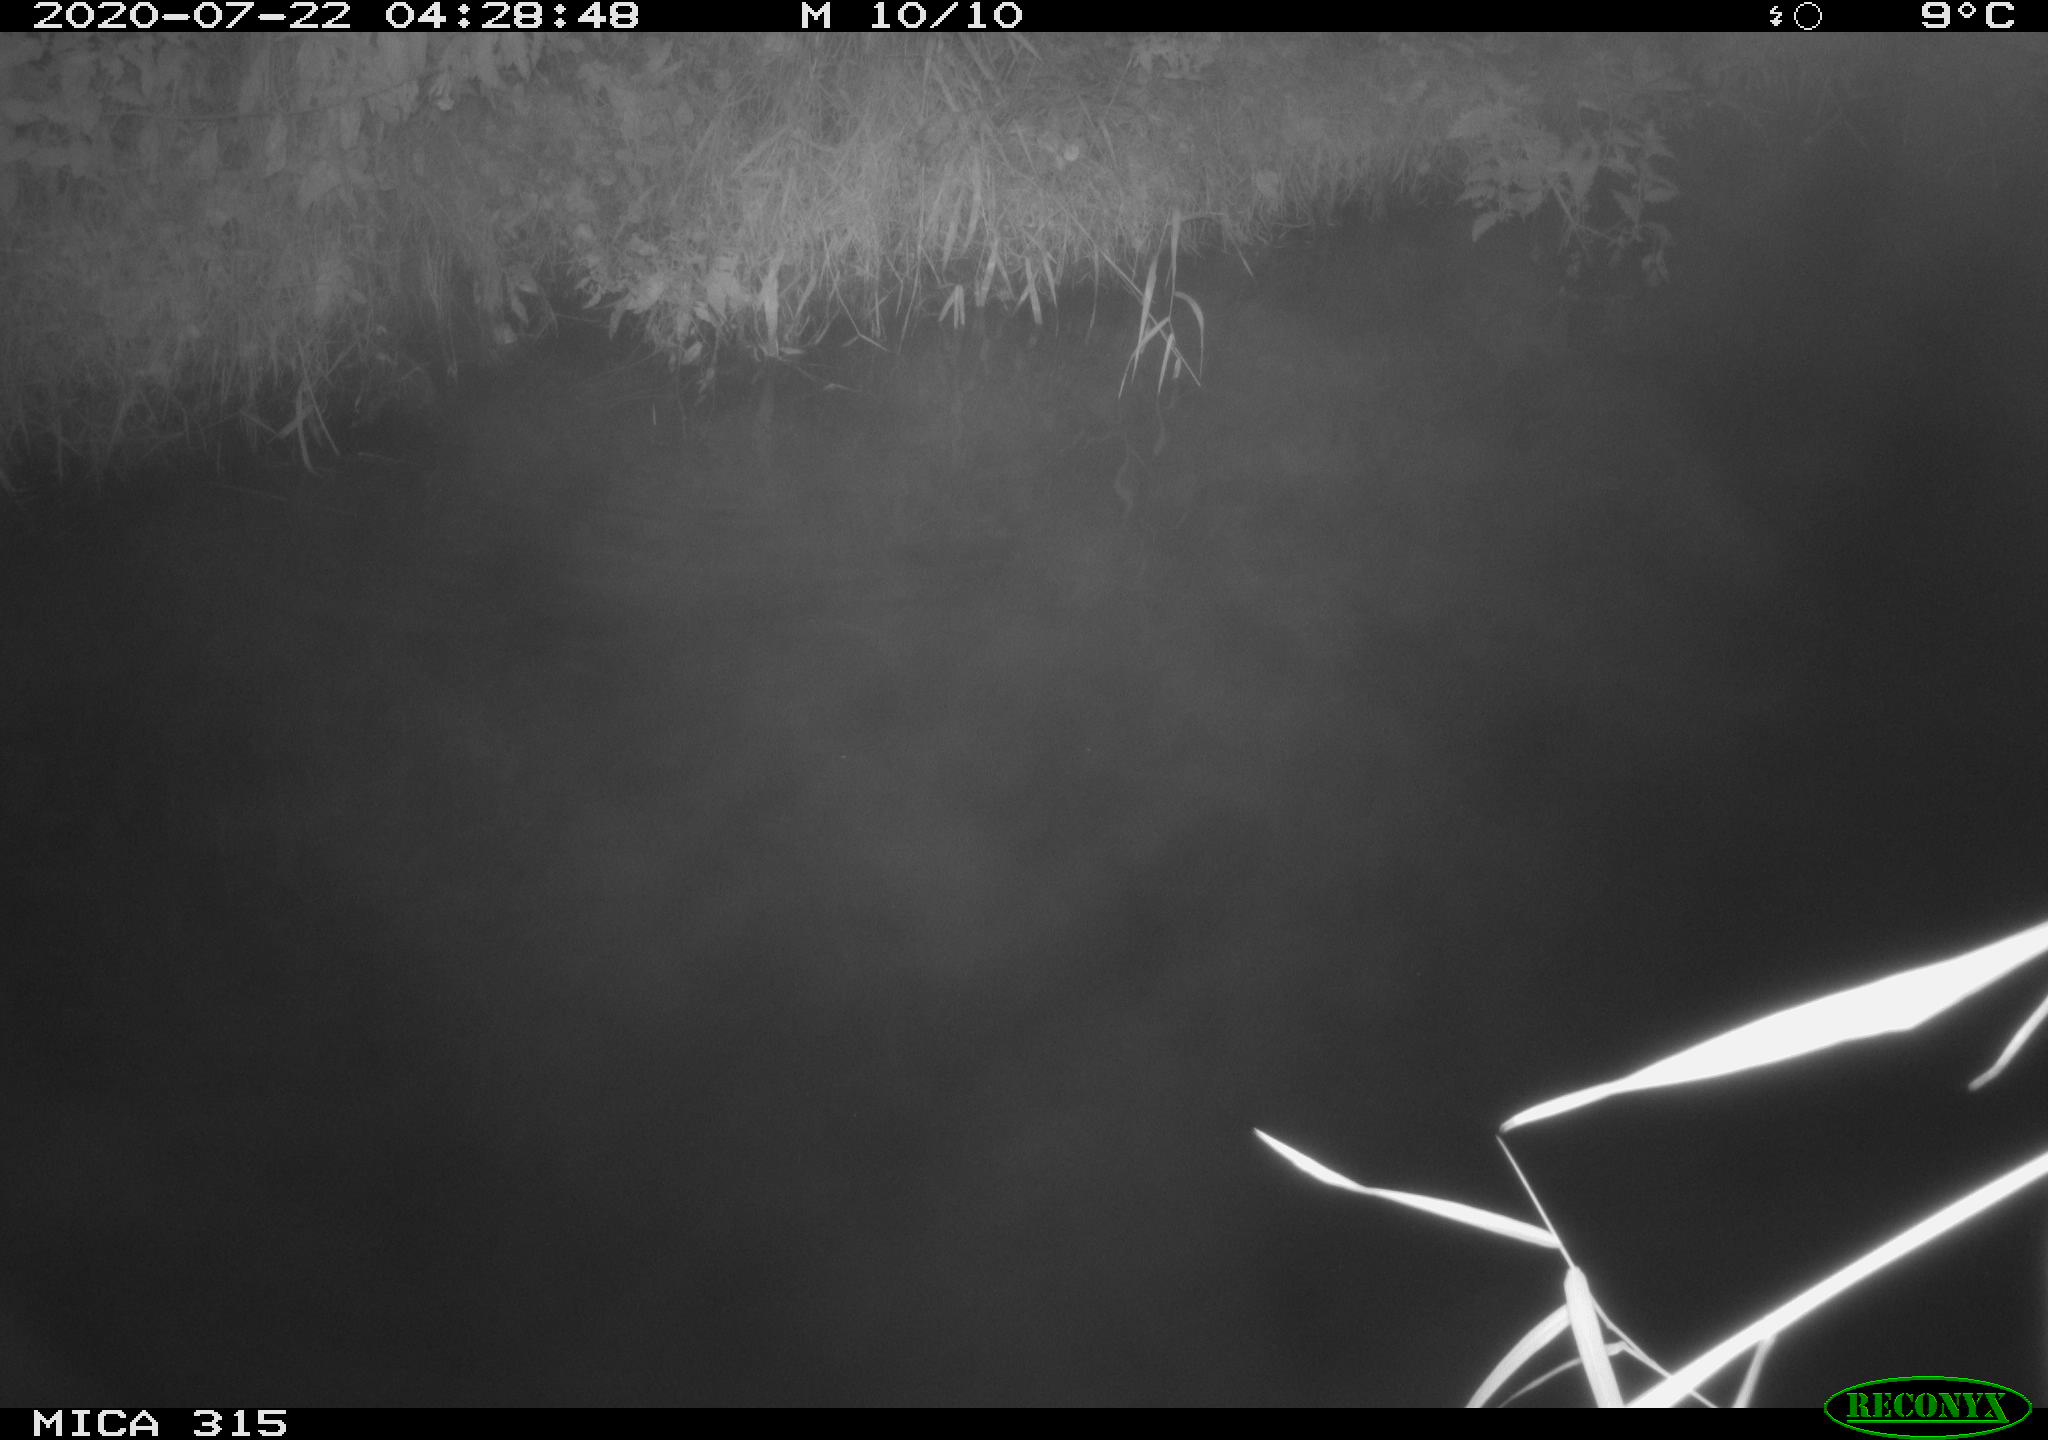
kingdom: Animalia
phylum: Chordata
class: Aves
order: Anseriformes
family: Anatidae
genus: Anas
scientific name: Anas platyrhynchos
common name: Mallard
